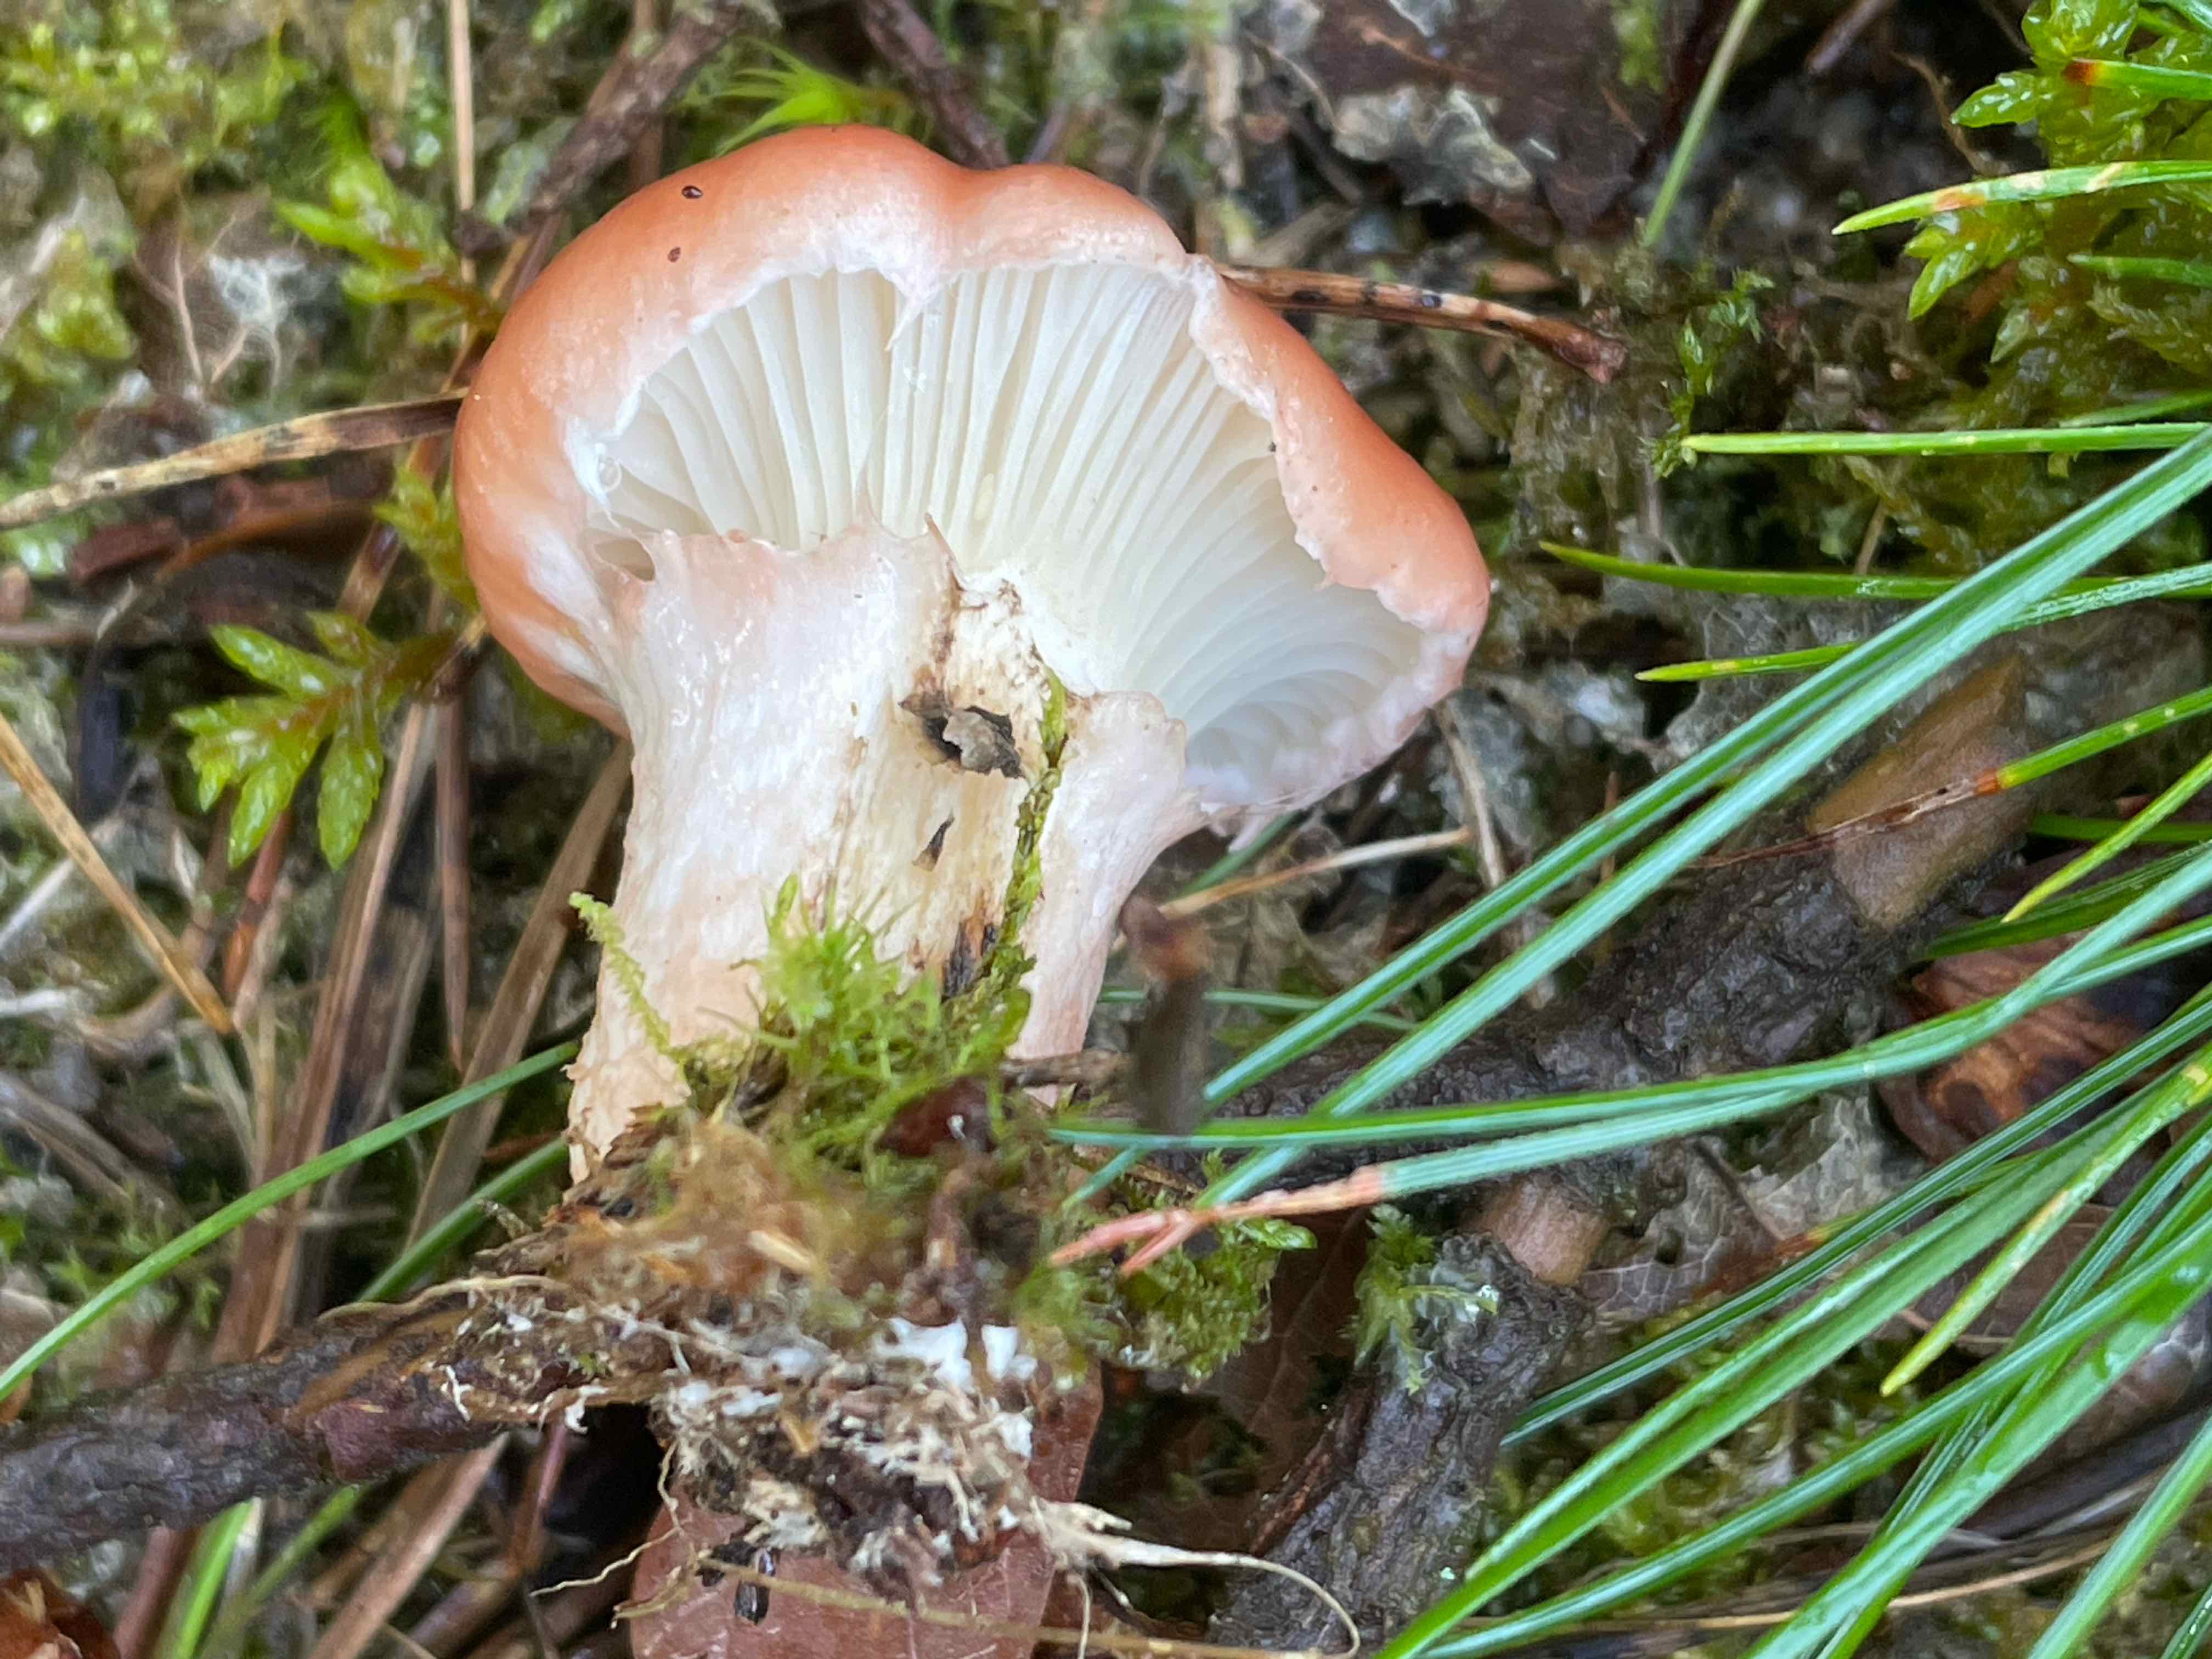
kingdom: Fungi
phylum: Basidiomycota
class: Agaricomycetes
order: Boletales
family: Gomphidiaceae
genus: Gomphidius
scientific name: Gomphidius roseus
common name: rosenrød slimslør
